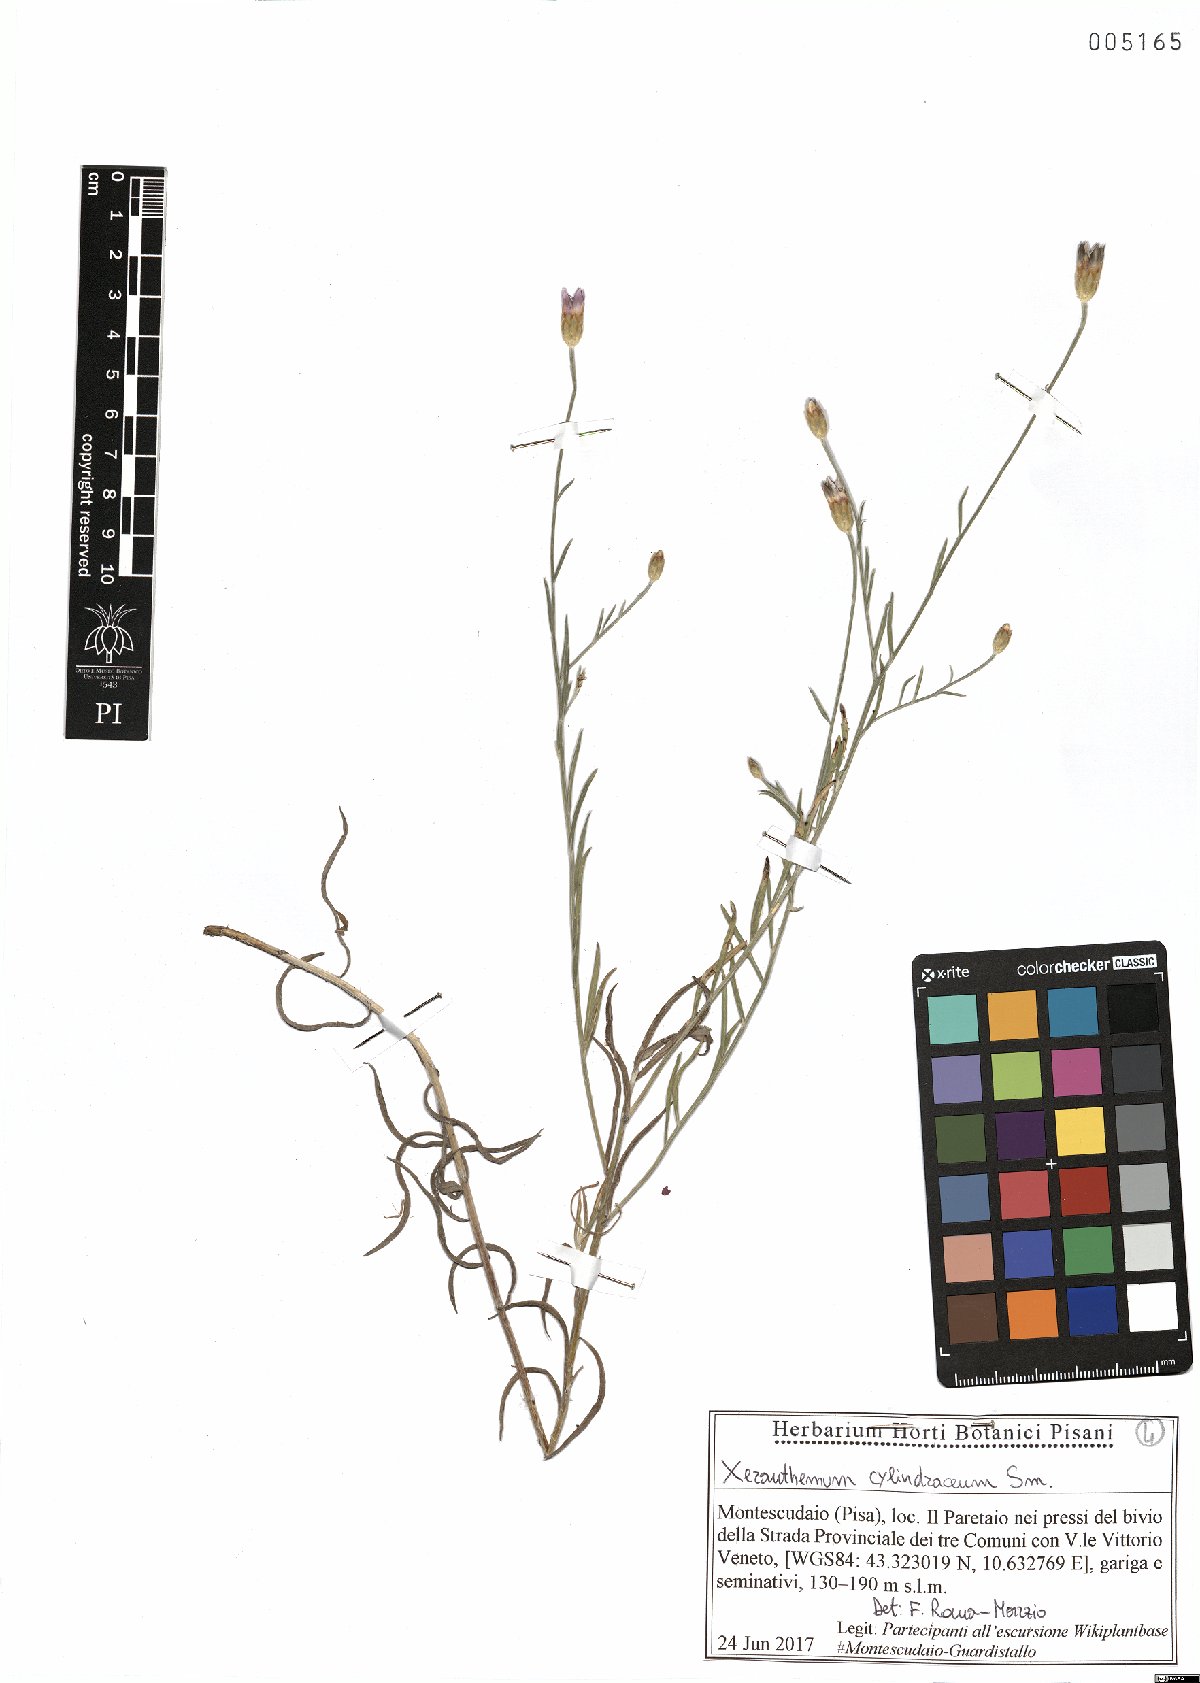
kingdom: Plantae
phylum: Tracheophyta
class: Magnoliopsida
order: Asterales
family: Asteraceae
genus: Xeranthemum
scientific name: Xeranthemum cylindraceum
